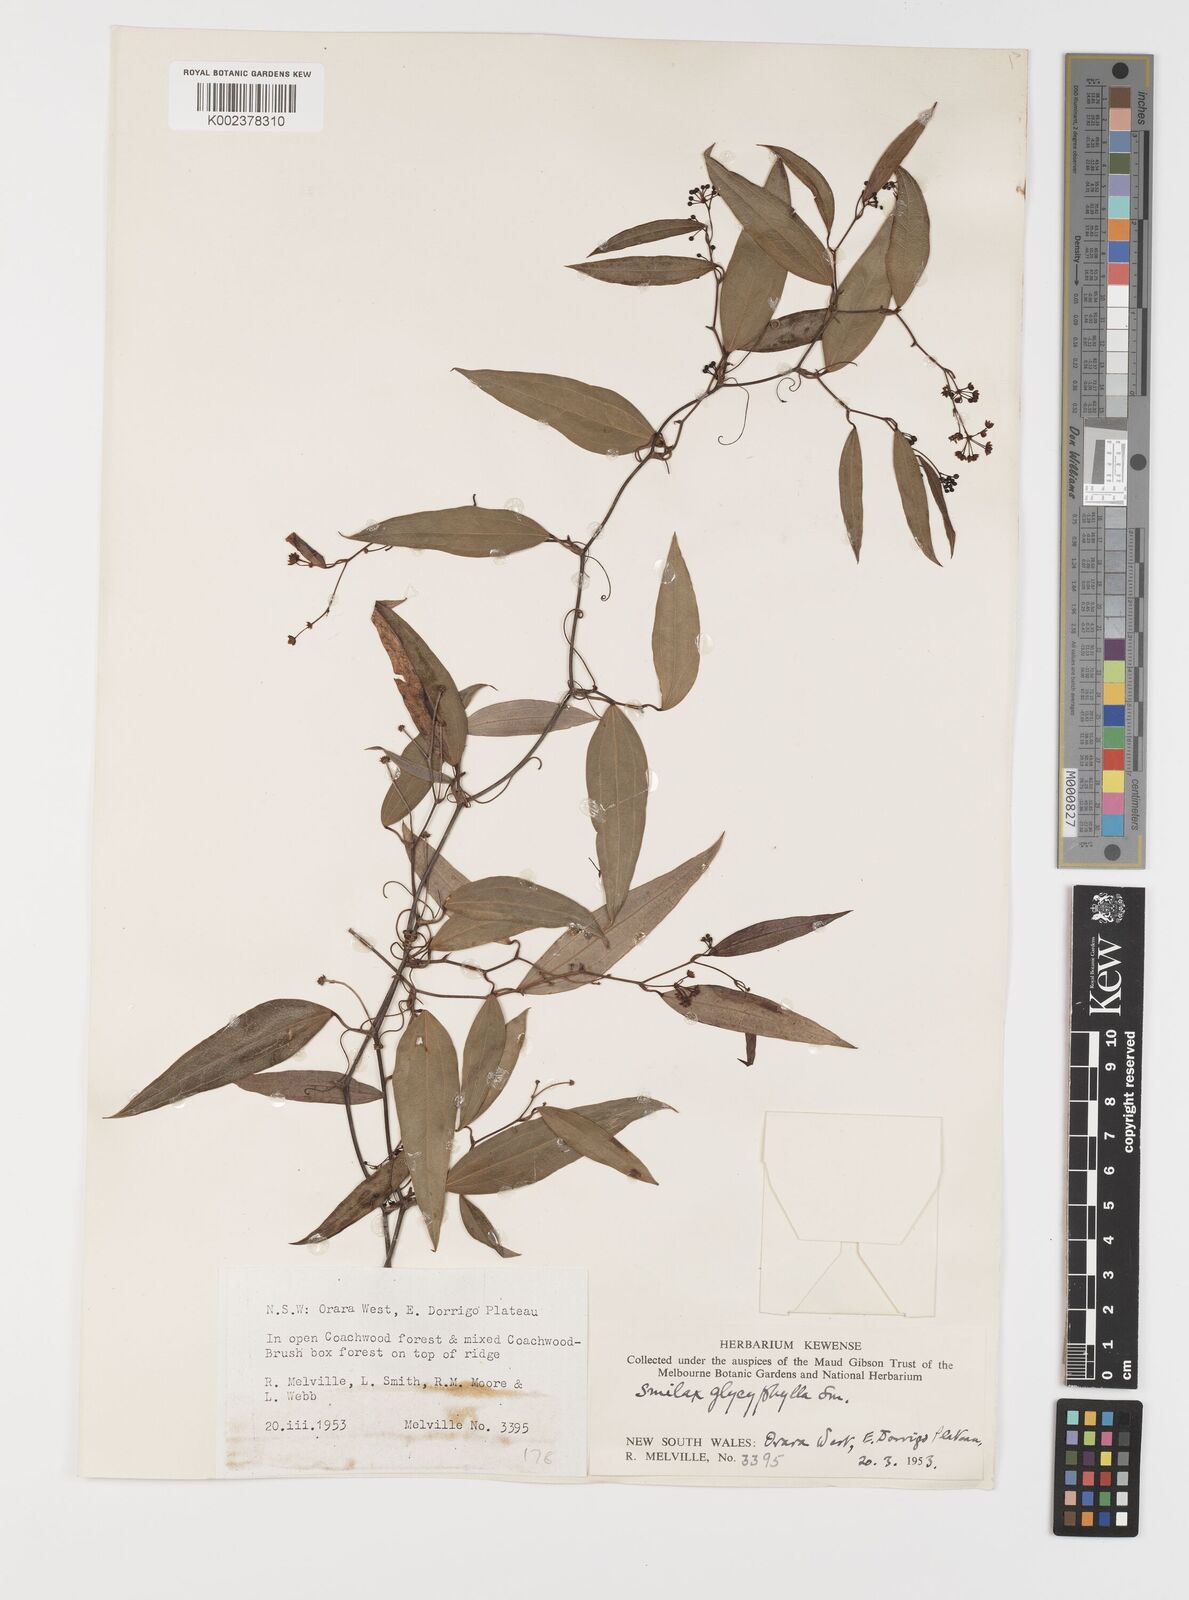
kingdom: Plantae
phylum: Tracheophyta
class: Liliopsida
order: Liliales
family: Smilacaceae
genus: Smilax
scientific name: Smilax leucophylla
